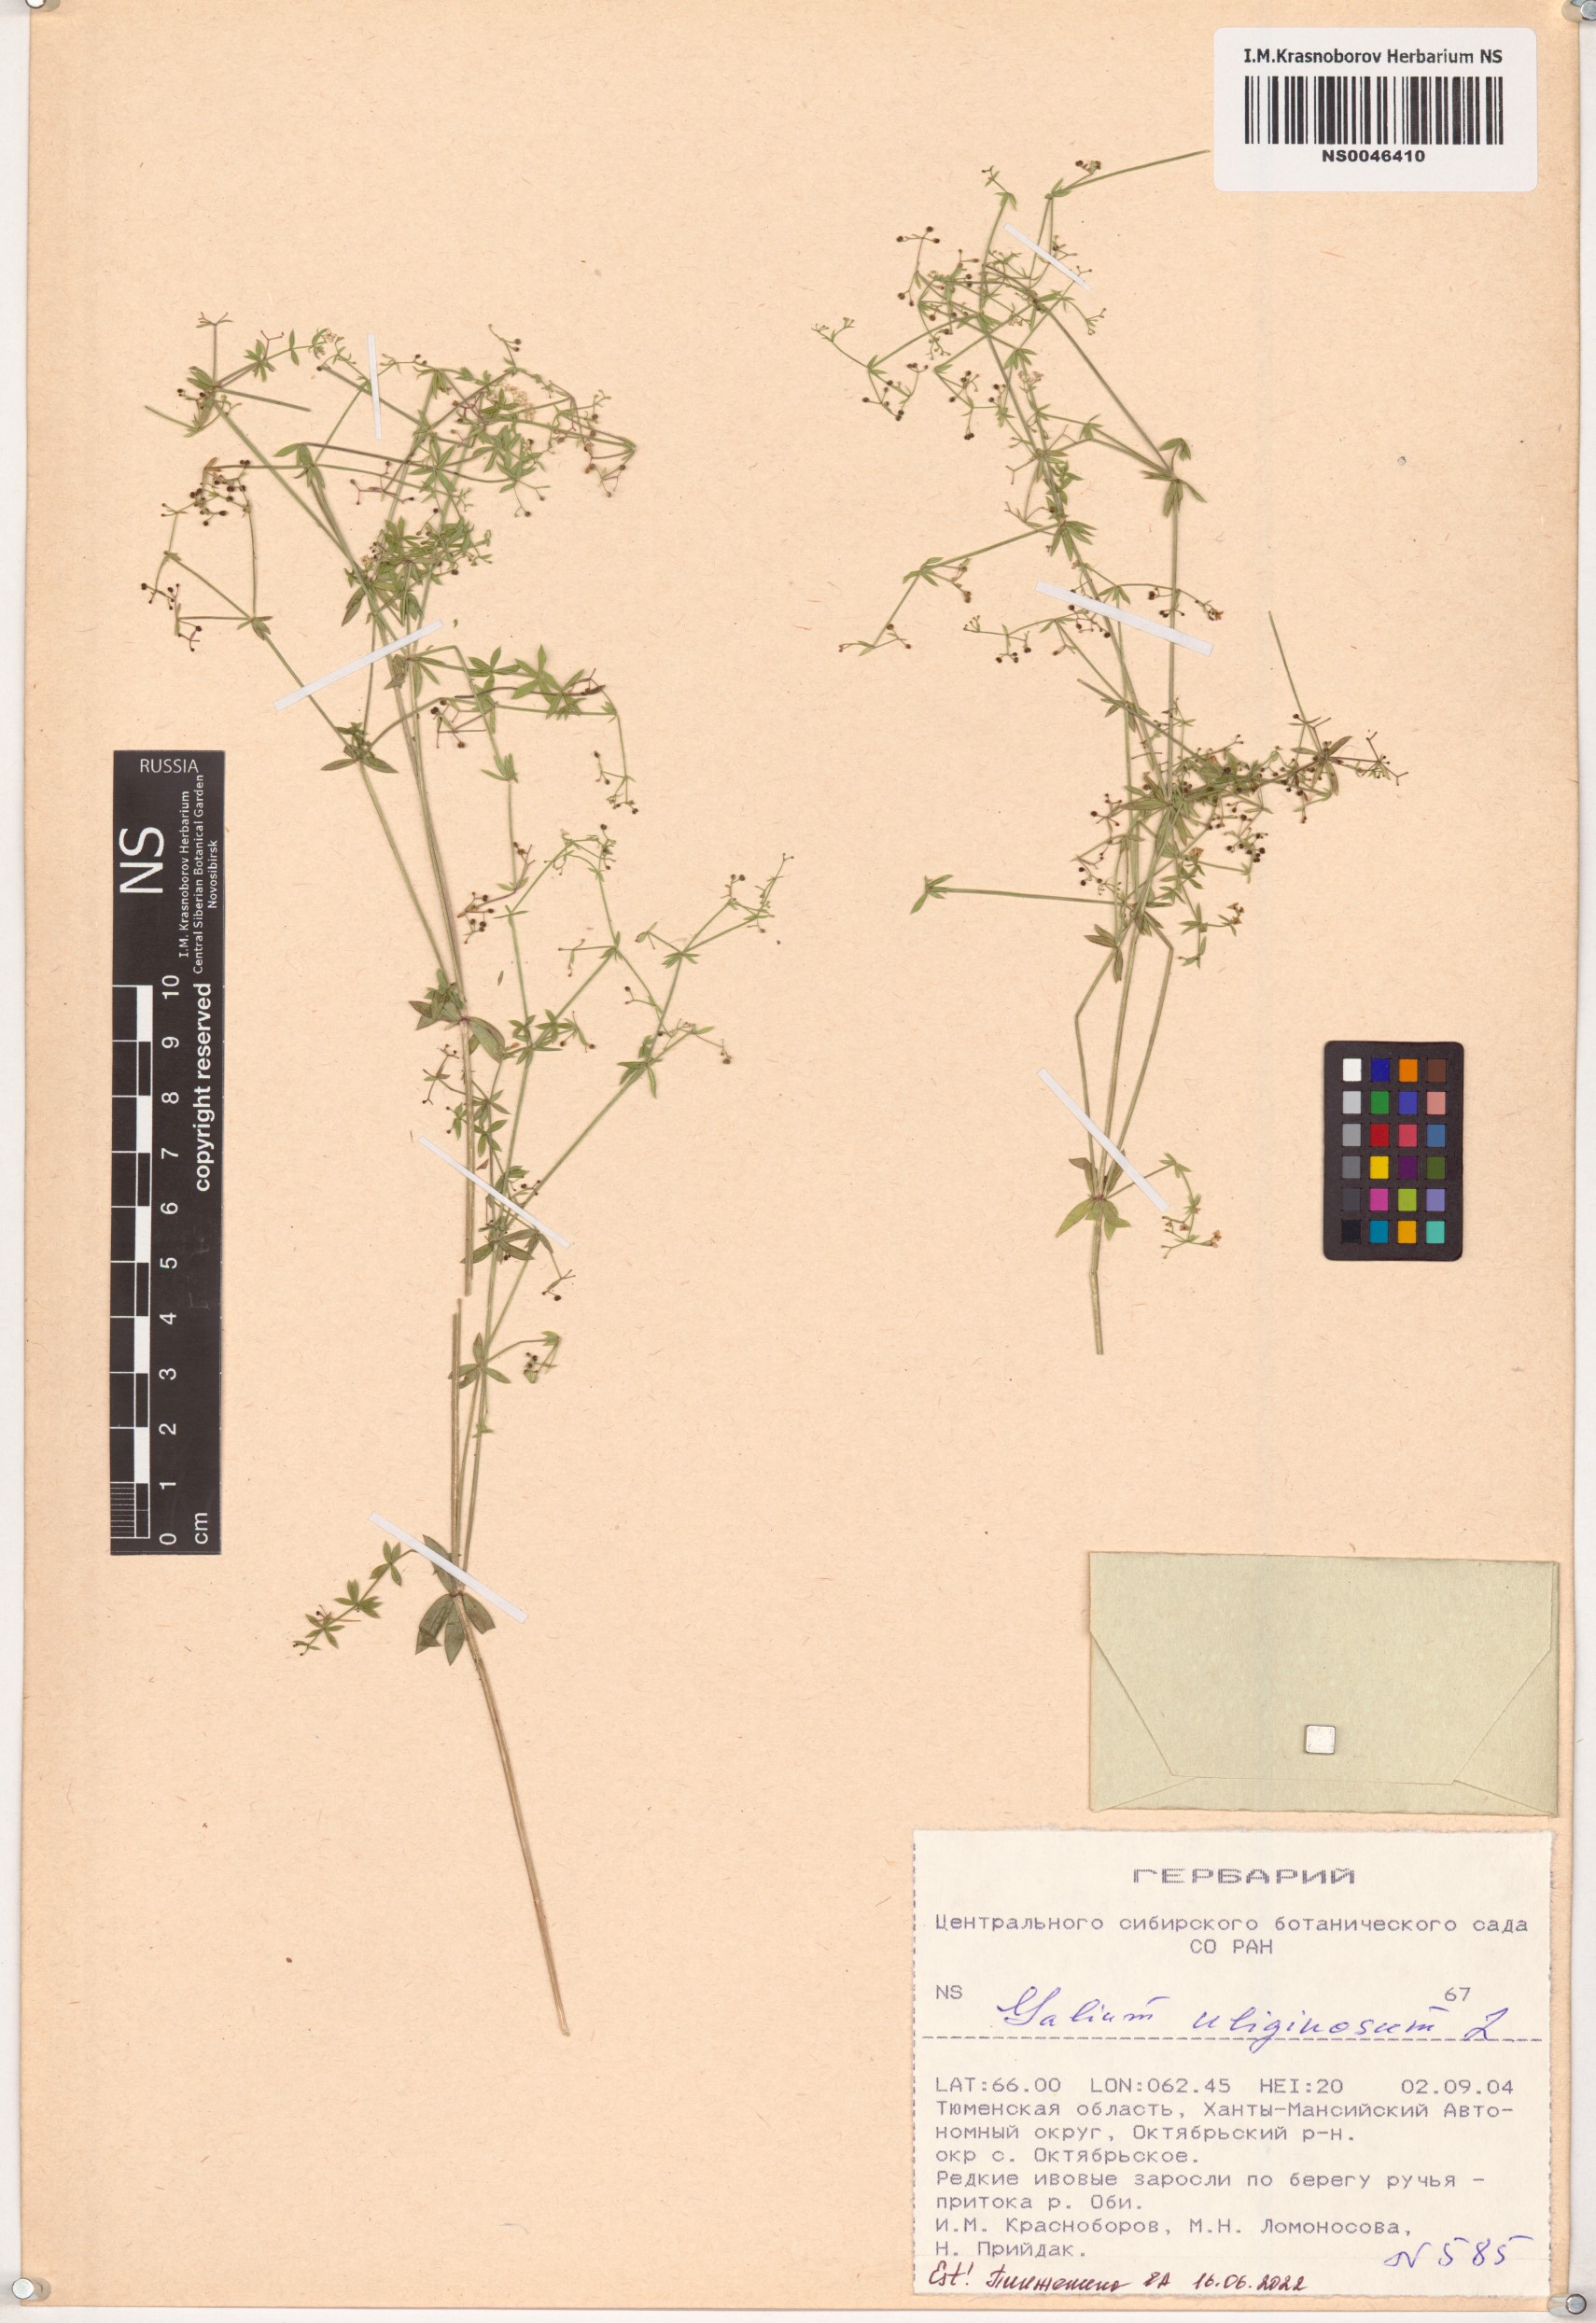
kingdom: Plantae
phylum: Tracheophyta
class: Magnoliopsida
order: Gentianales
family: Rubiaceae
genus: Galium
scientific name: Galium uliginosum
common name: Fen bedstraw
